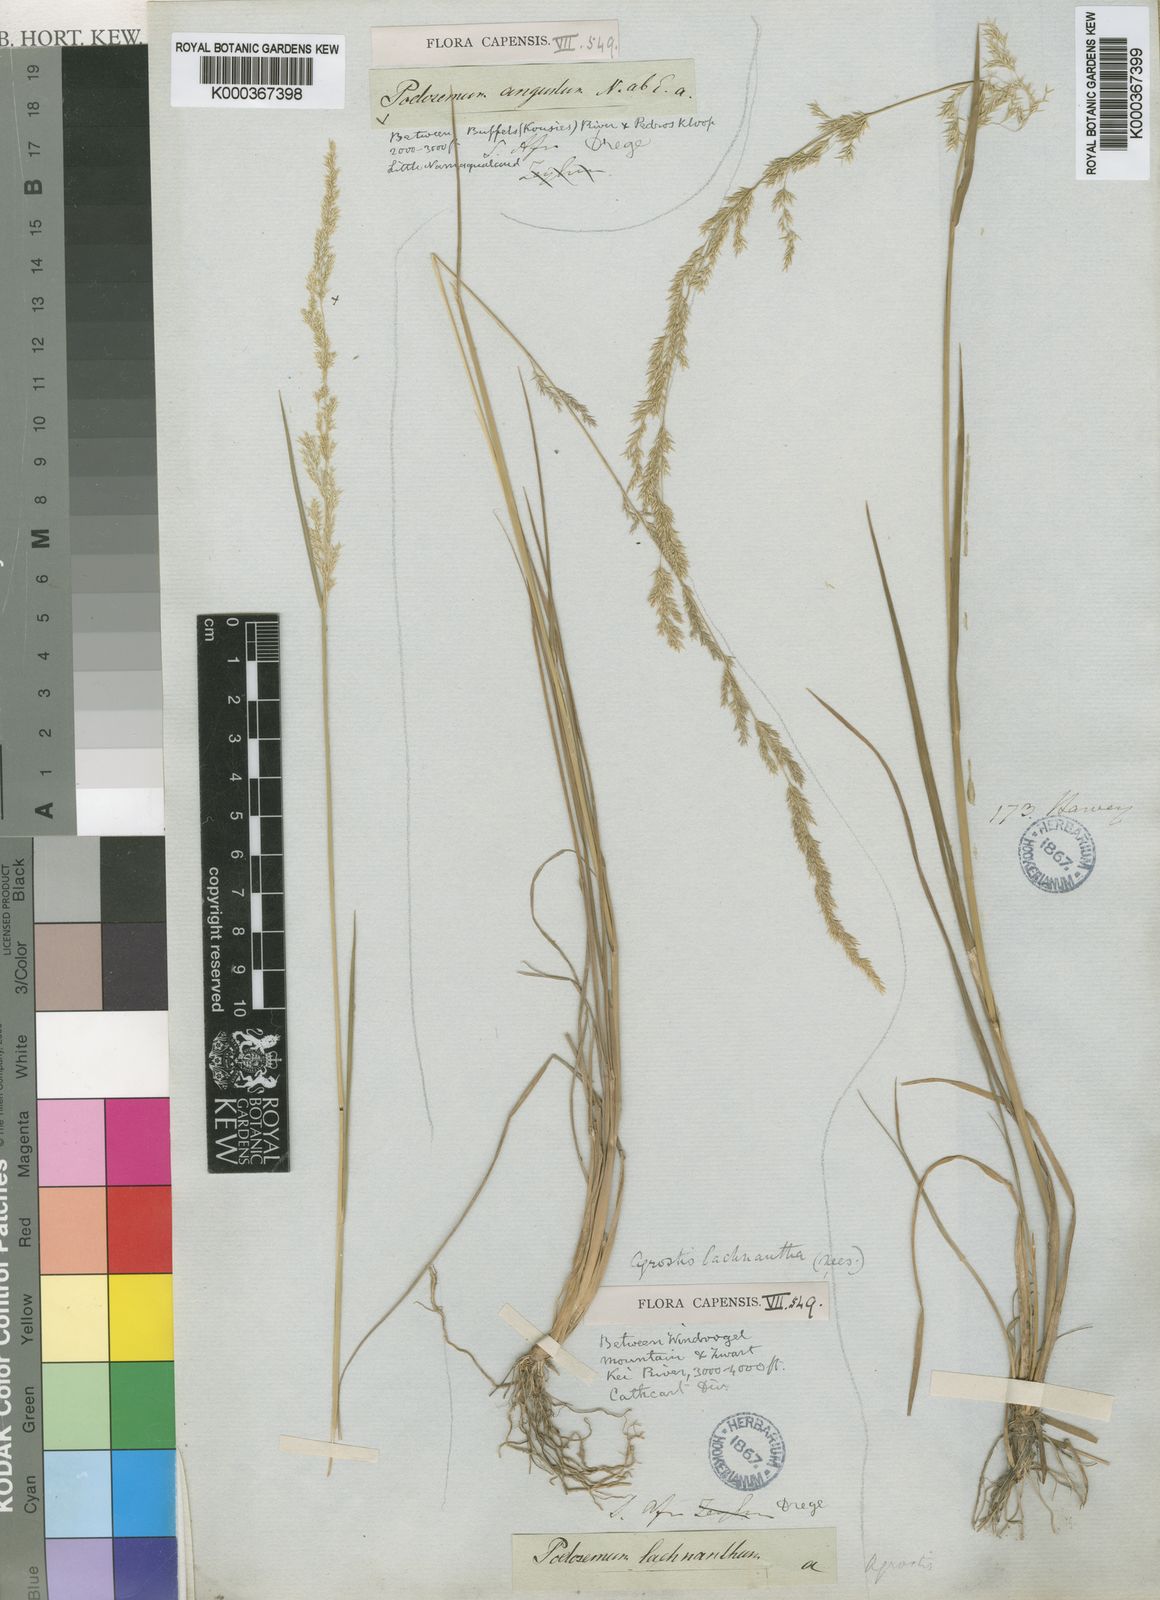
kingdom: Plantae
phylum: Tracheophyta
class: Liliopsida
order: Poales
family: Poaceae
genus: Lachnagrostis
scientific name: Lachnagrostis lachnantha
